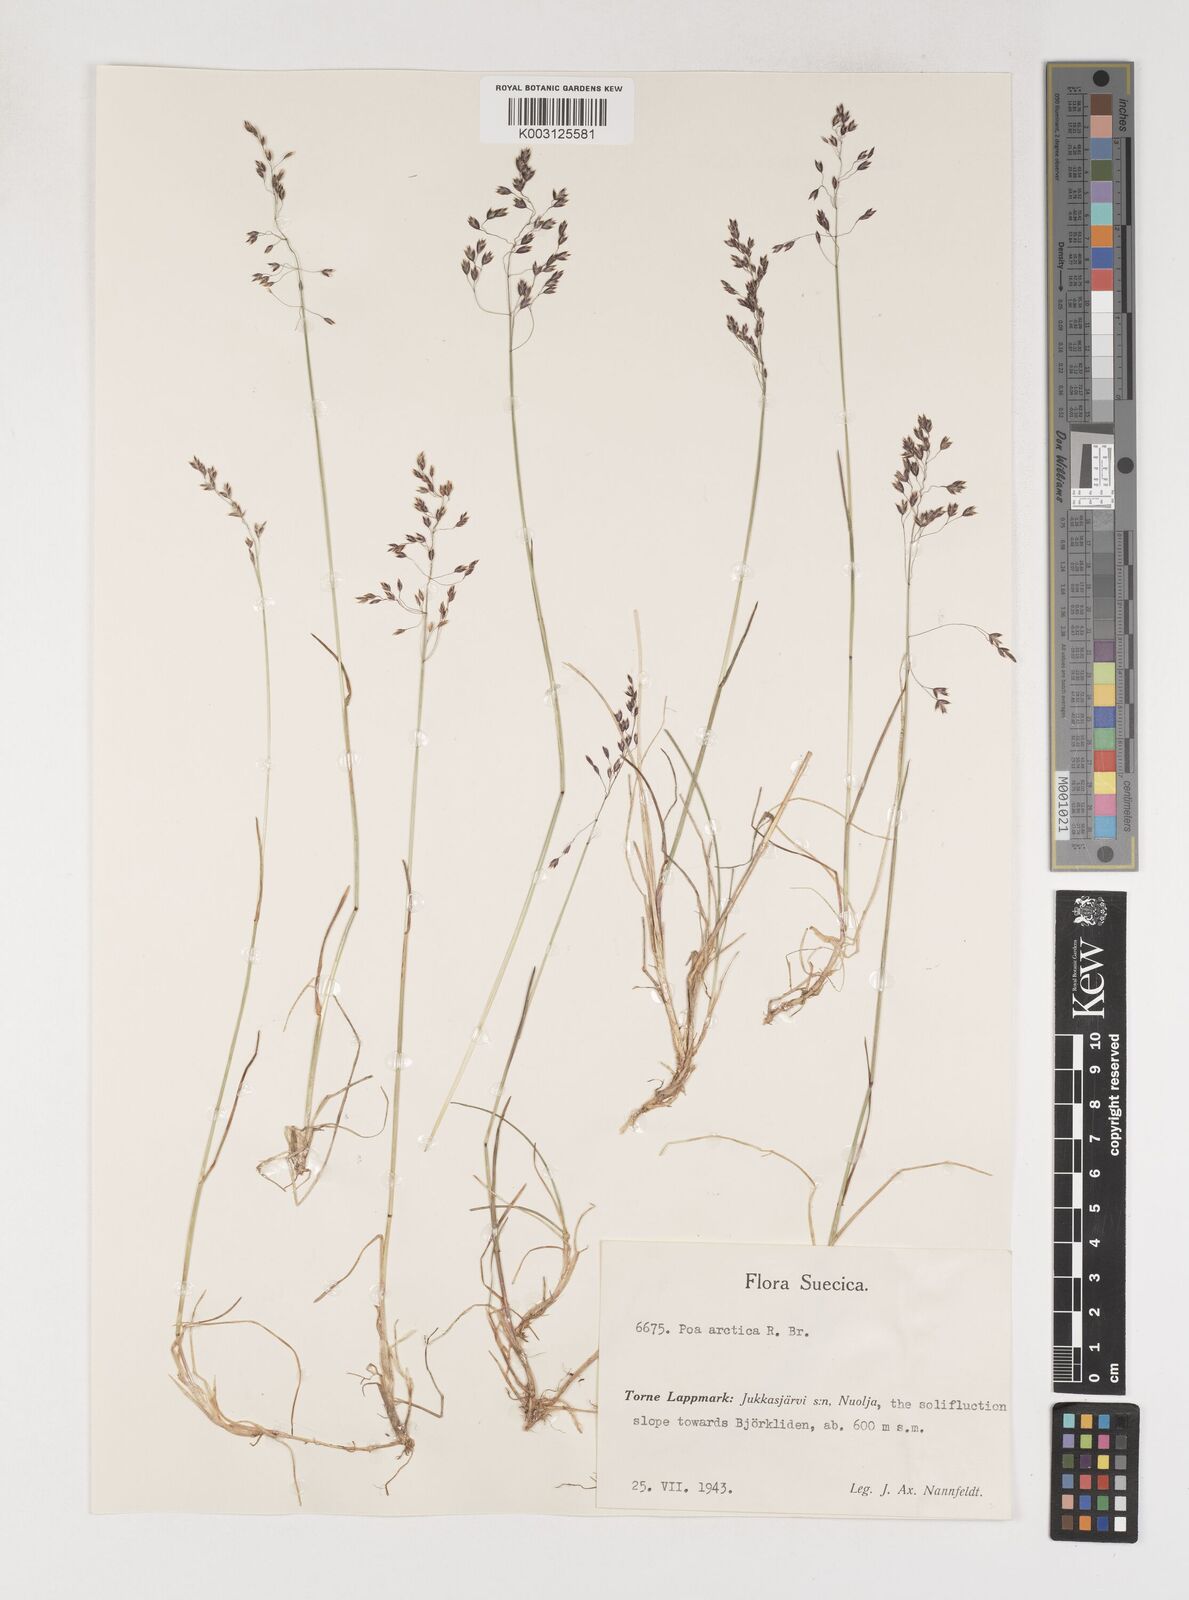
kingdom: Plantae
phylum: Tracheophyta
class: Liliopsida
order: Poales
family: Poaceae
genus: Poa
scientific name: Poa arctica
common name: Arctic bluegrass
